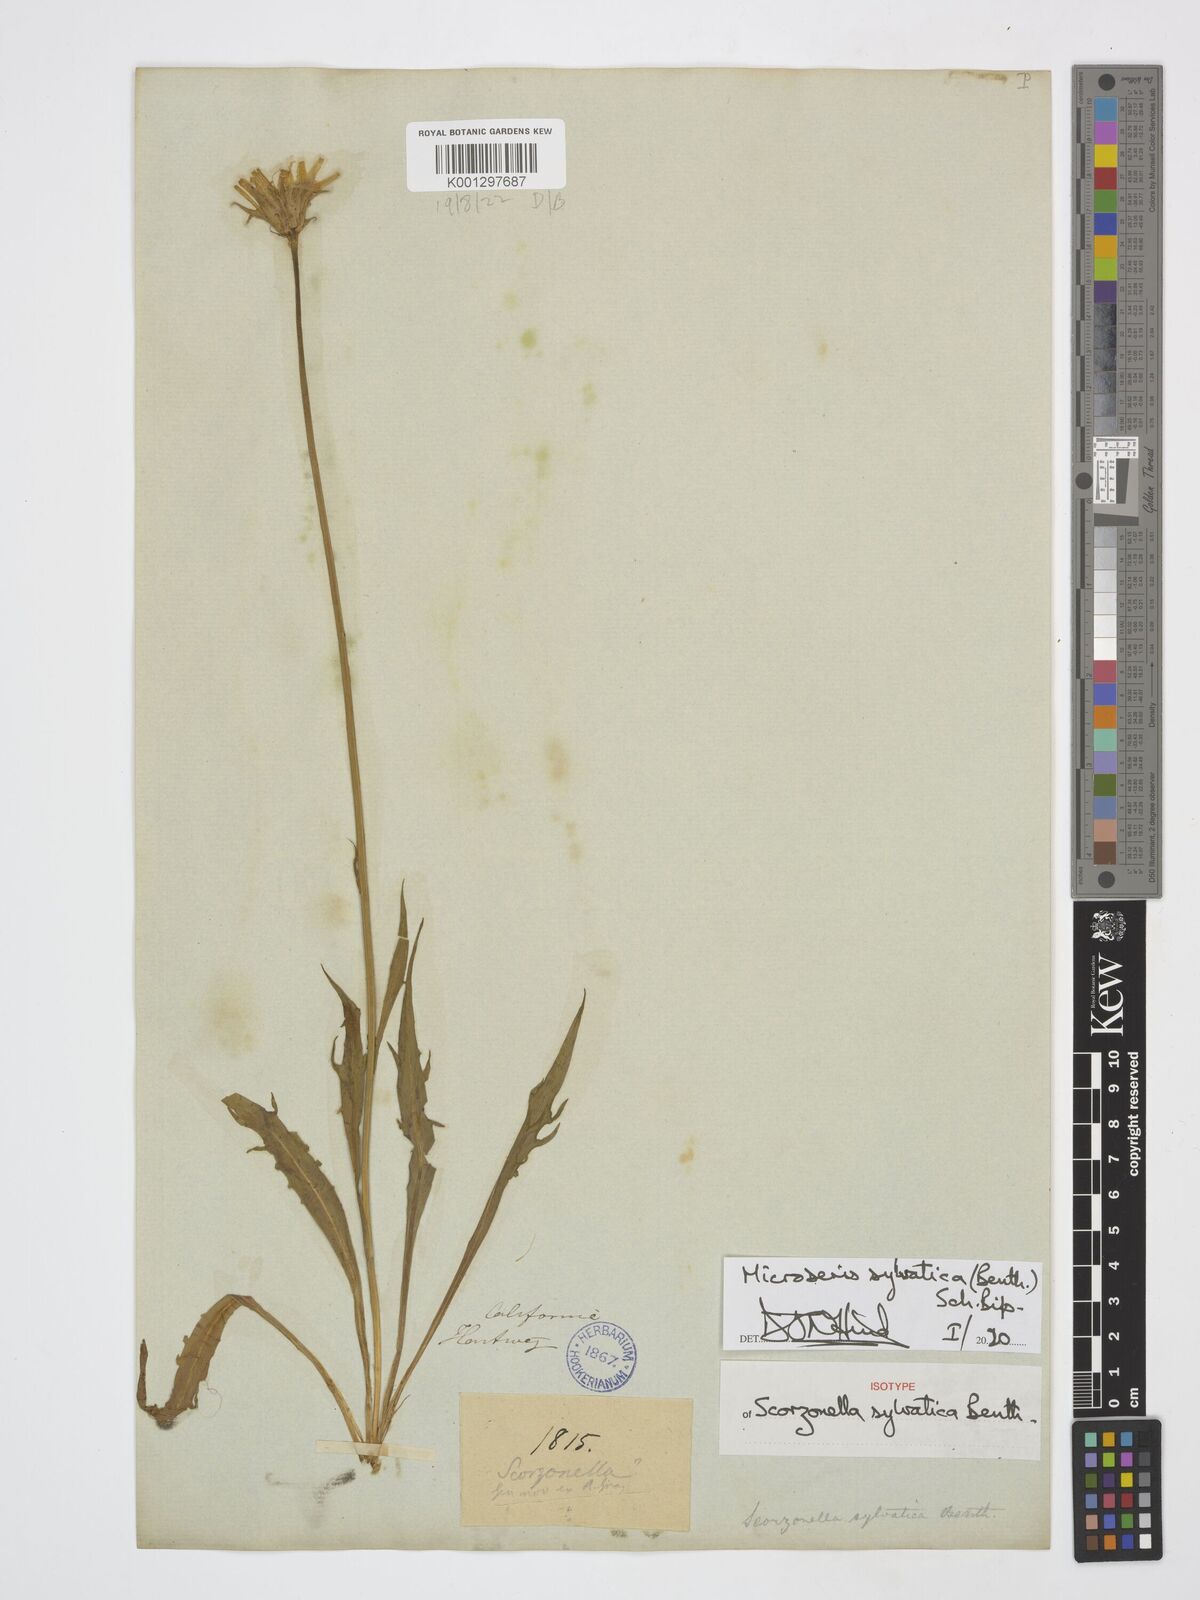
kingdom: Plantae
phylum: Tracheophyta
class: Magnoliopsida
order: Asterales
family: Asteraceae
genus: Microseris
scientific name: Microseris sylvatica
